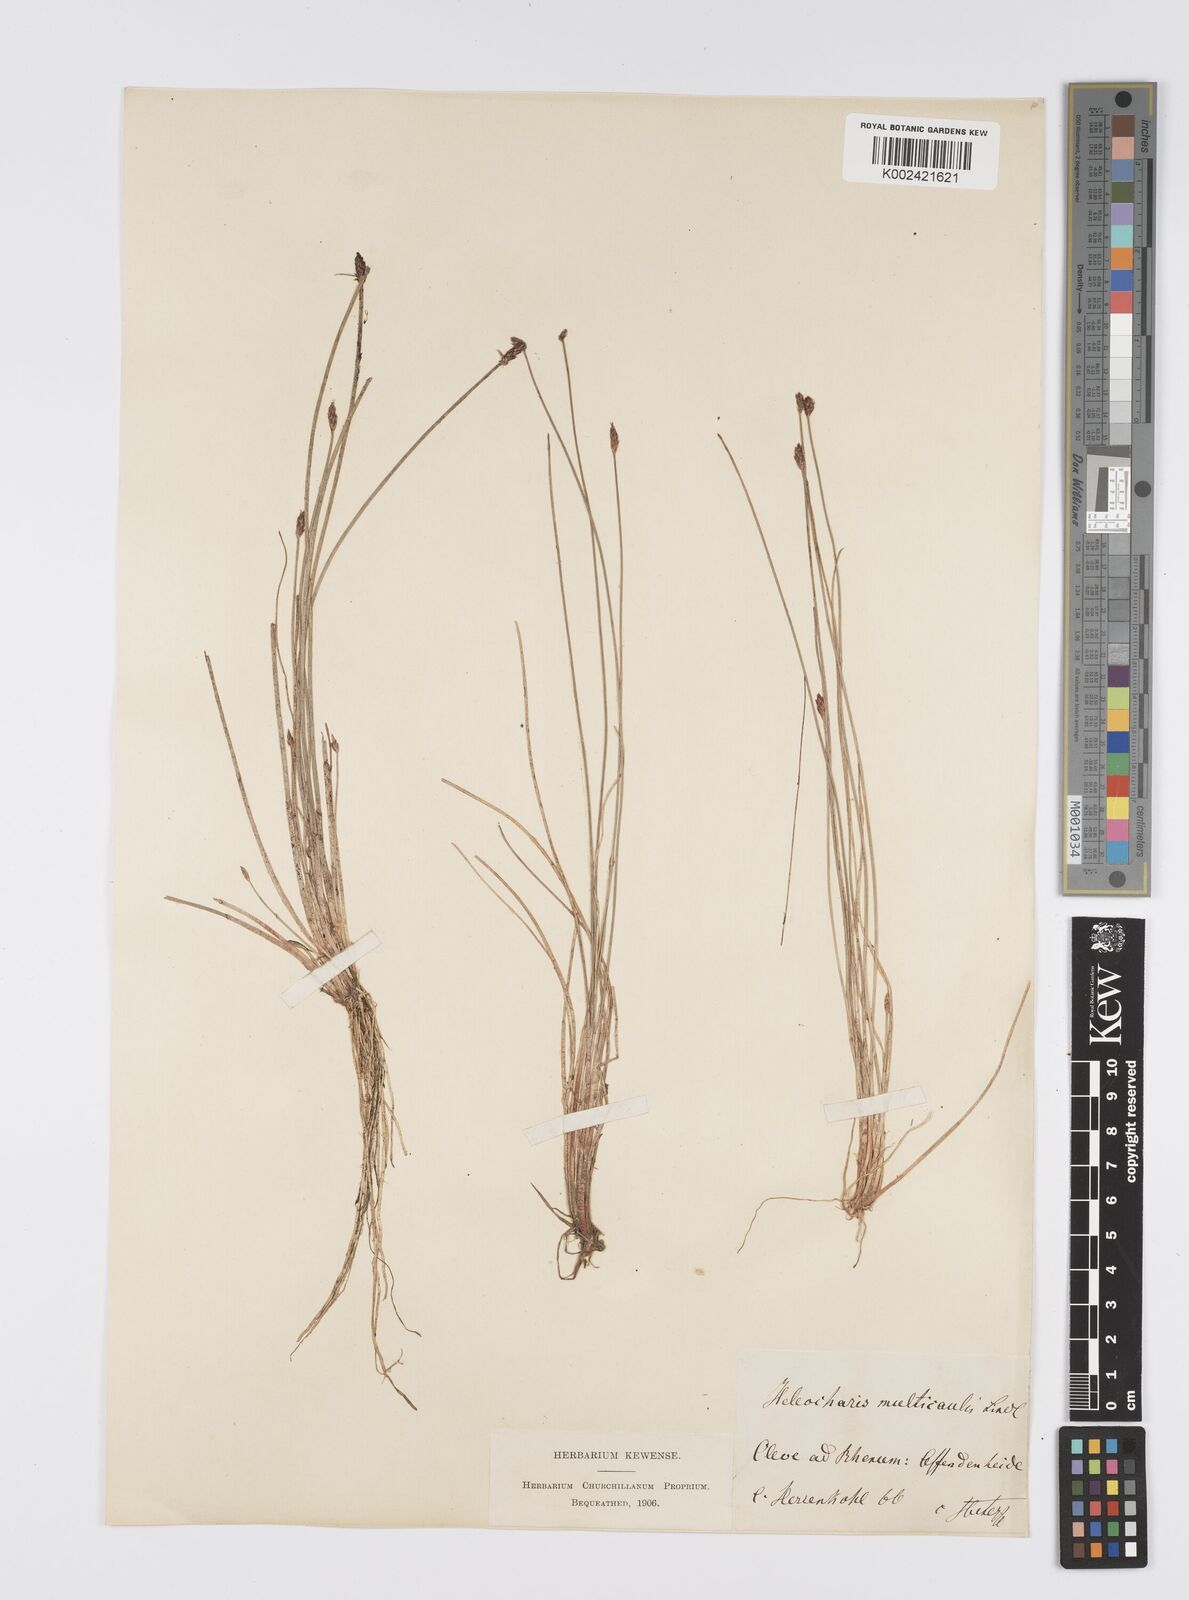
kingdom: Plantae
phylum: Tracheophyta
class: Liliopsida
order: Poales
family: Cyperaceae
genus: Eleocharis
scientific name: Eleocharis multicaulis
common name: Many-stalked spike-rush
